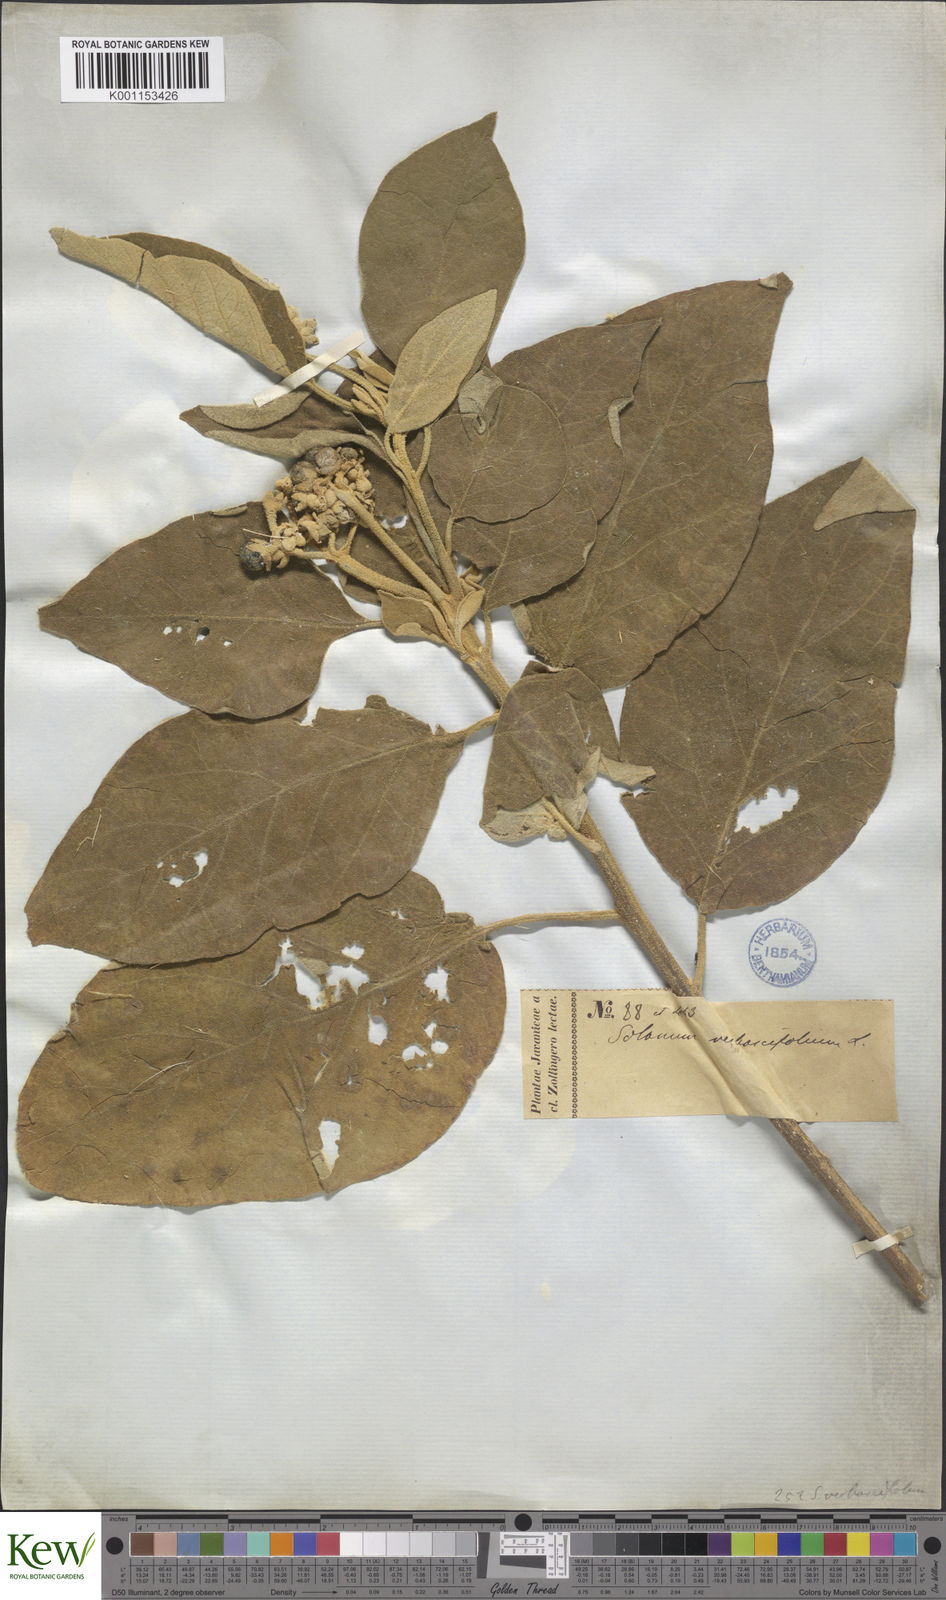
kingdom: Plantae
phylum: Tracheophyta
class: Magnoliopsida
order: Solanales
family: Solanaceae
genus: Solanum
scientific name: Solanum donianum
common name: Mullein nightshade
